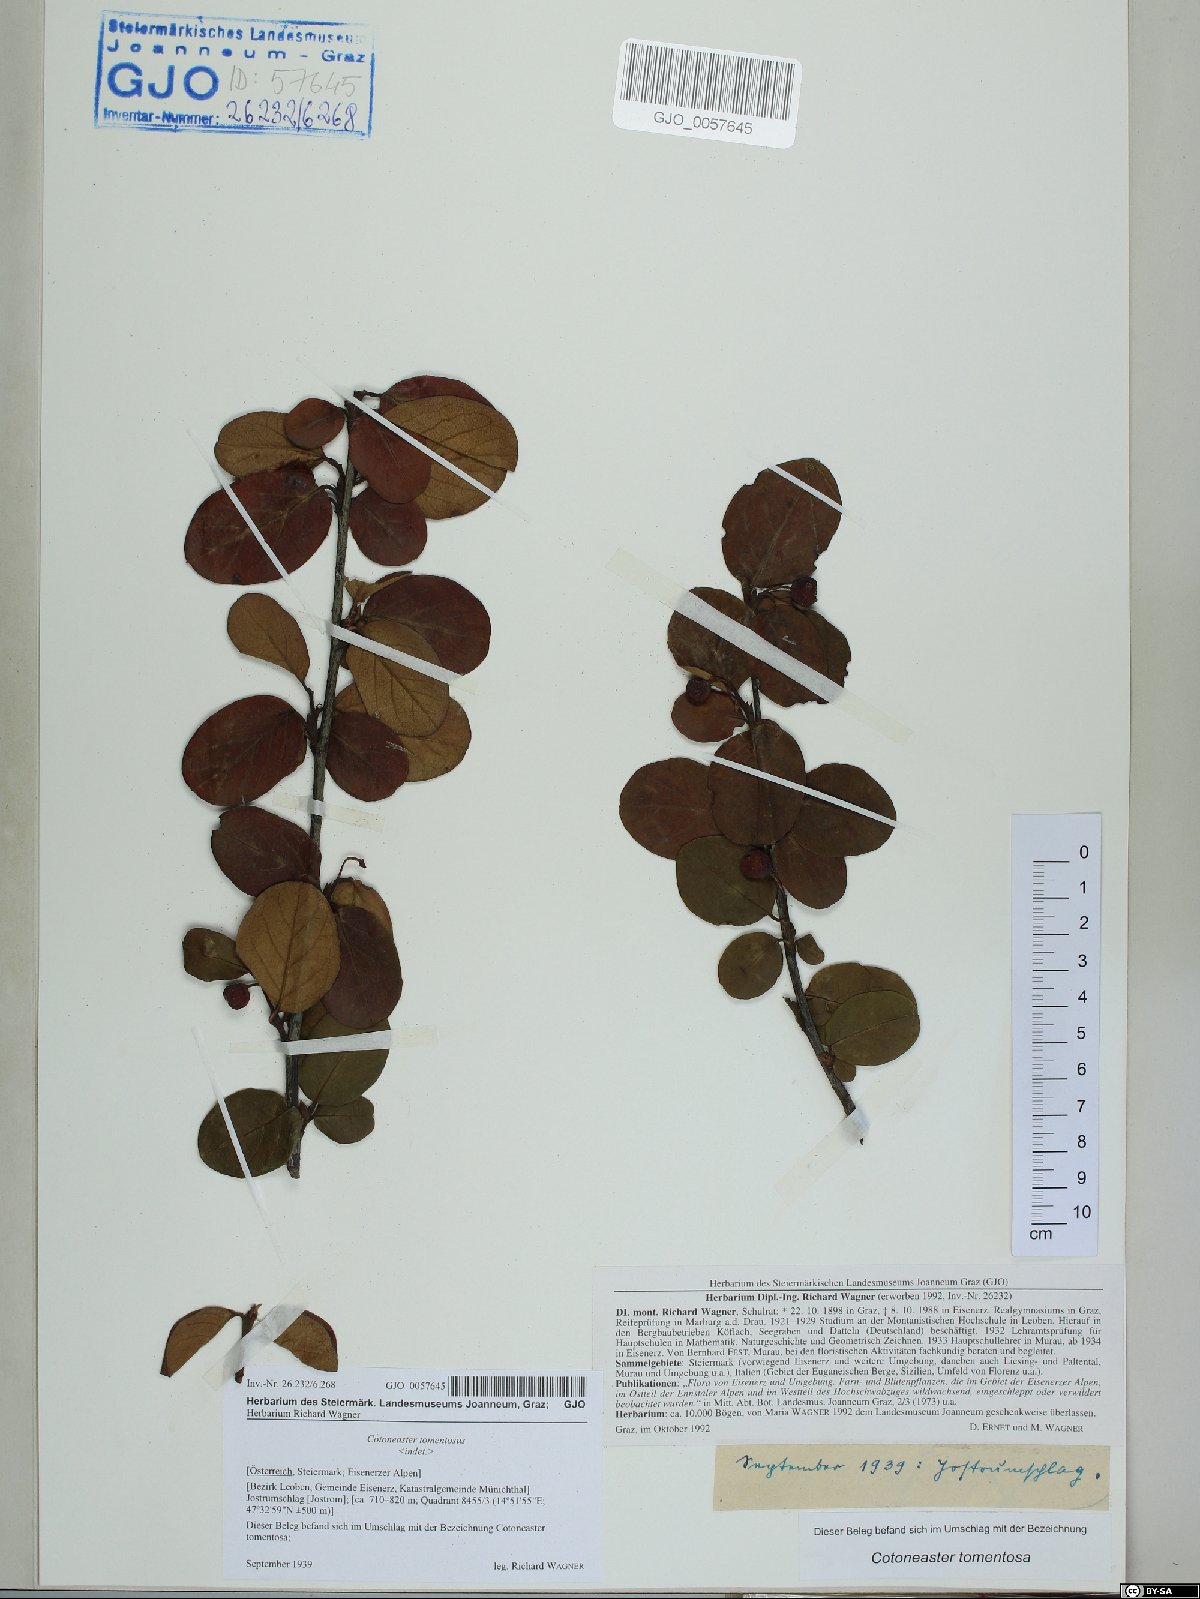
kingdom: Plantae
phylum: Tracheophyta
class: Magnoliopsida
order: Rosales
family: Rosaceae
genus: Cotoneaster
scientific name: Cotoneaster tomentosus
